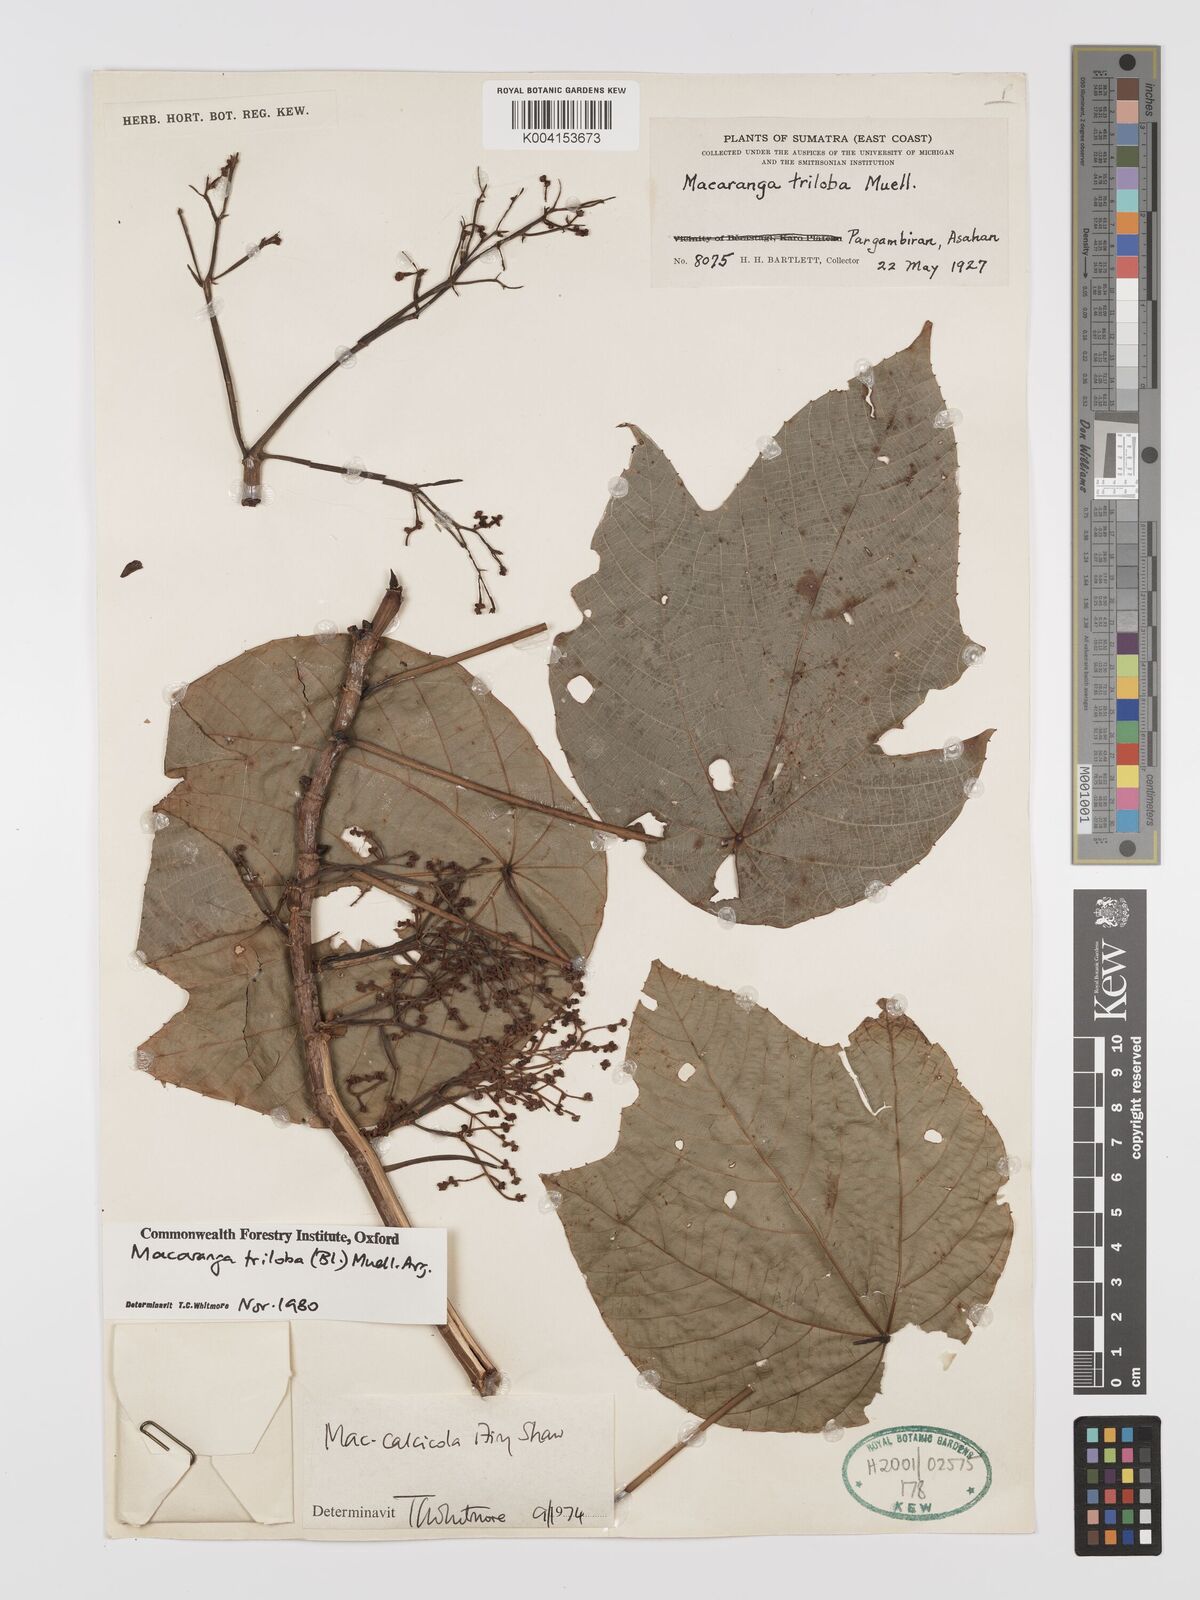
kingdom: Plantae
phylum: Tracheophyta
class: Magnoliopsida
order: Malpighiales
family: Euphorbiaceae
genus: Macaranga
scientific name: Macaranga triloba
